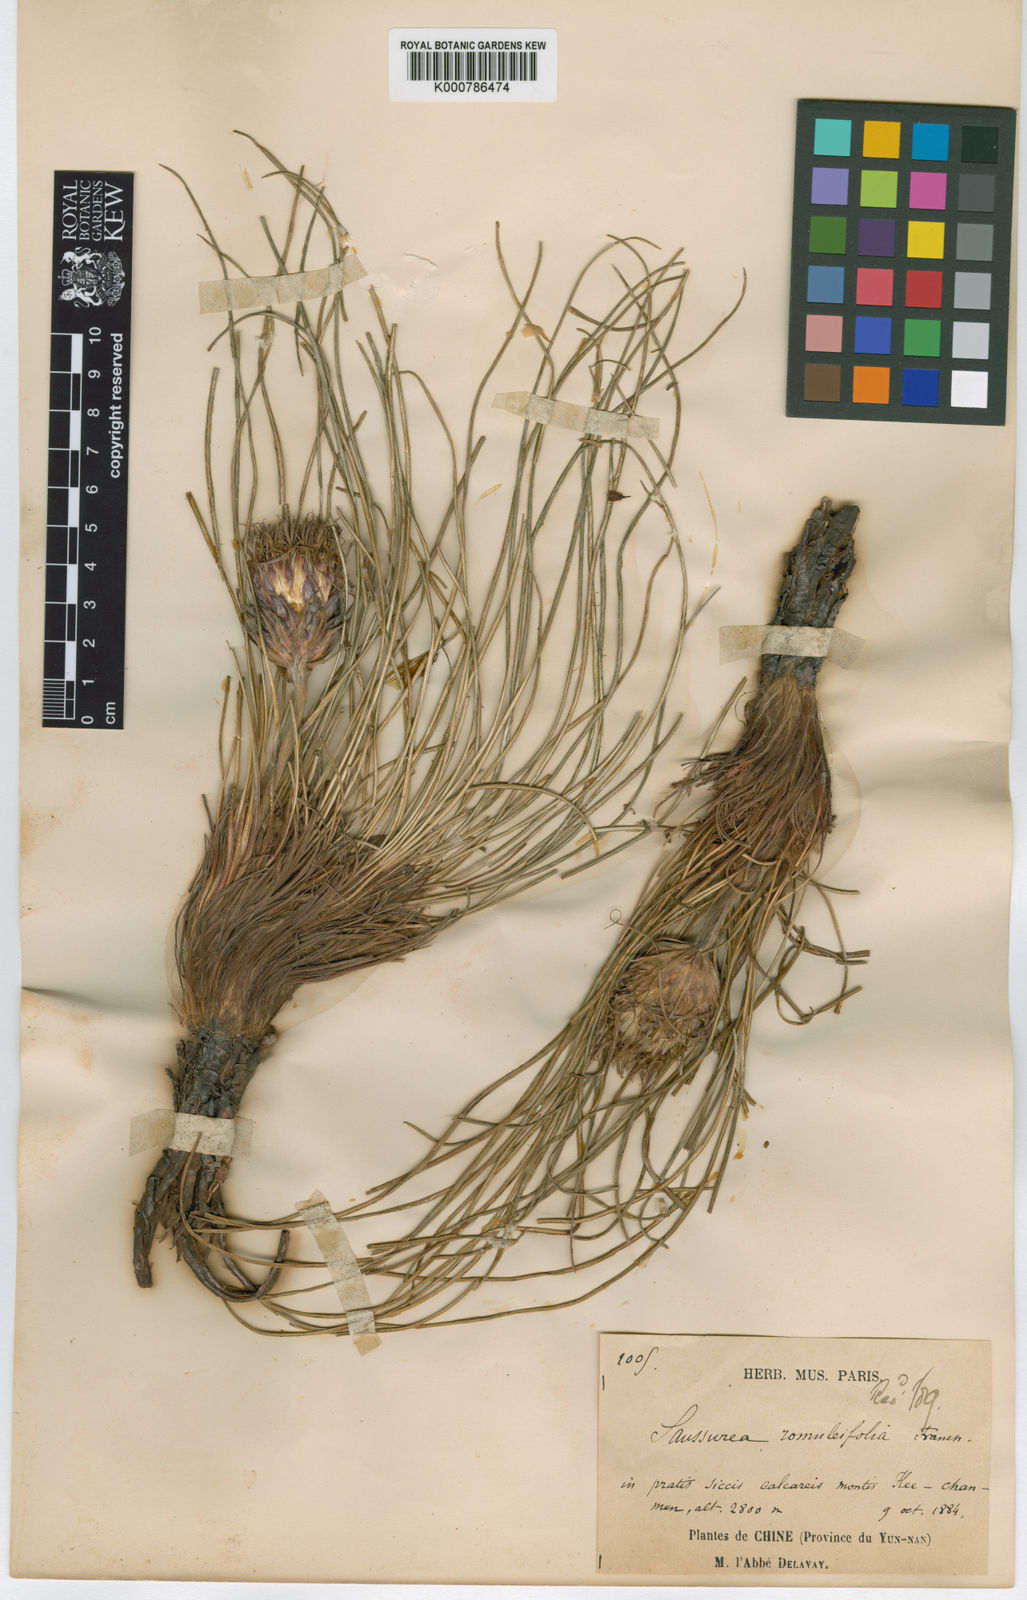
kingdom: Plantae
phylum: Tracheophyta
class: Magnoliopsida
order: Asterales
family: Asteraceae
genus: Saussurea
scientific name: Saussurea romuleifolia
